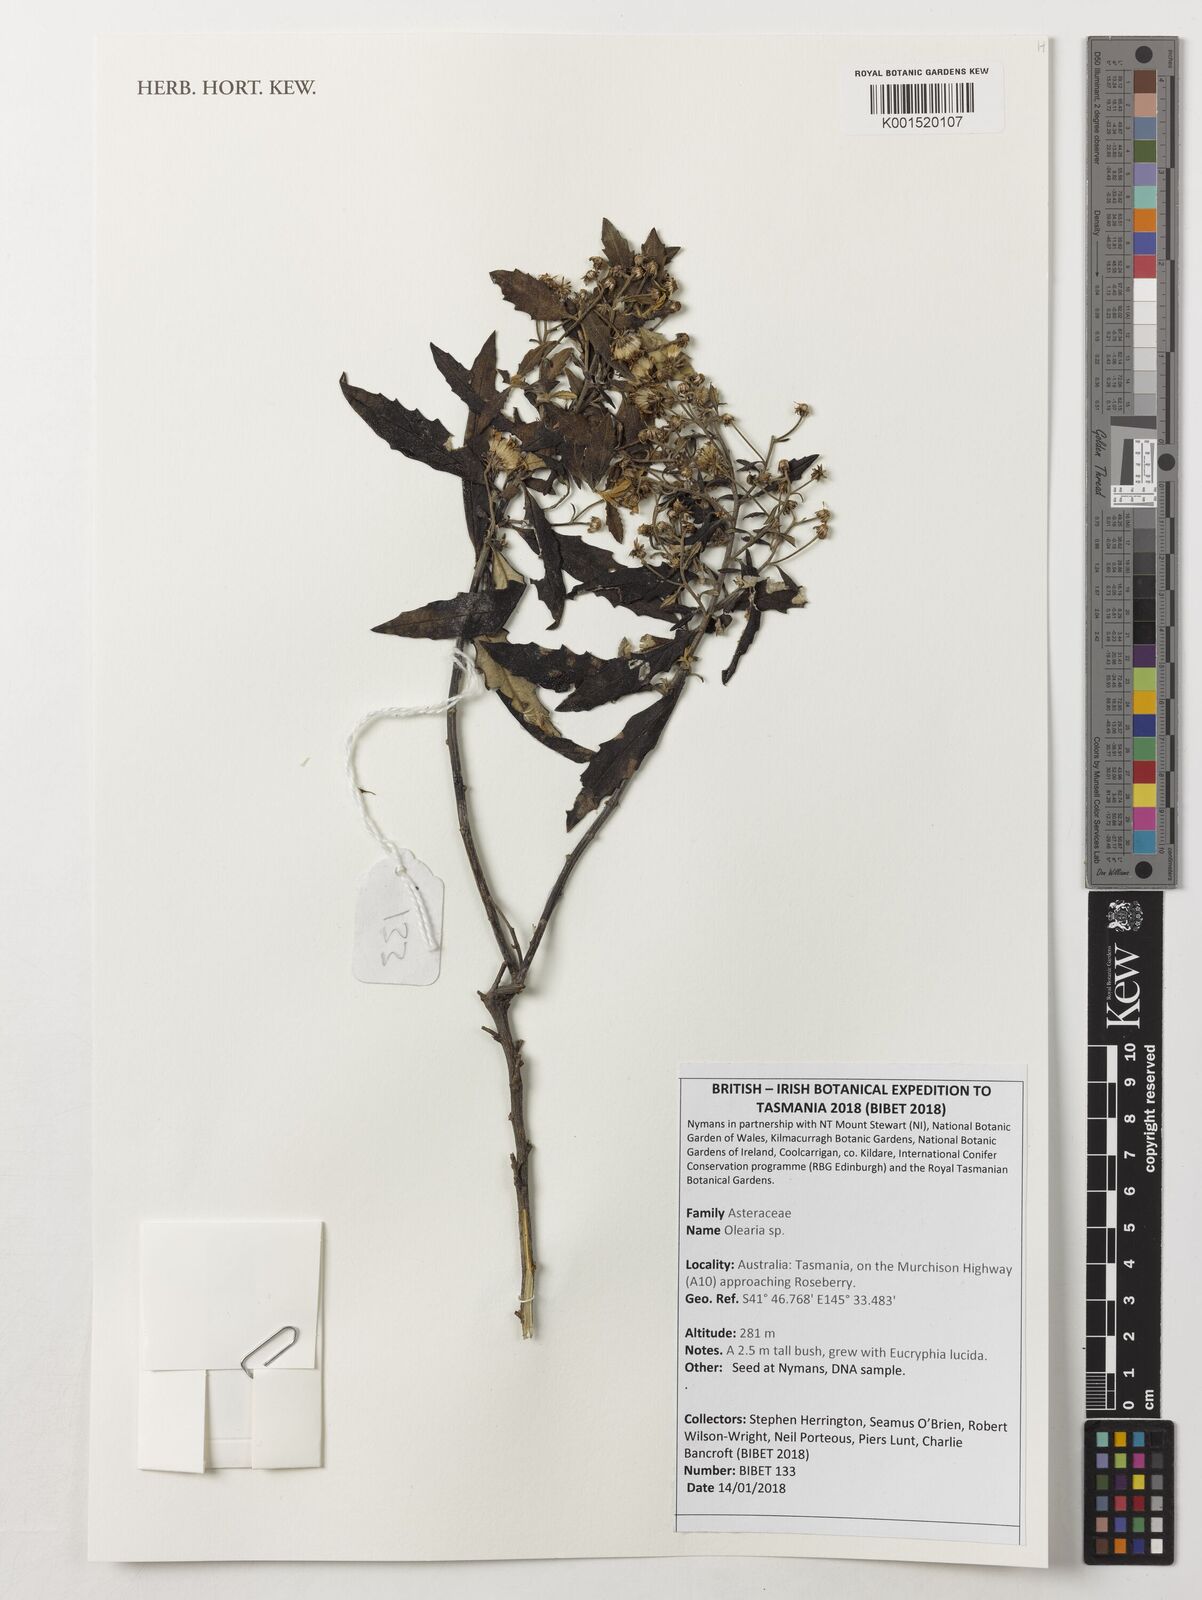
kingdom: Plantae
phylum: Tracheophyta
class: Magnoliopsida
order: Asterales
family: Asteraceae
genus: Olearia
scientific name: Olearia
